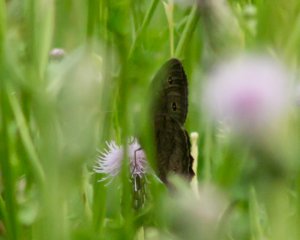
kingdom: Animalia
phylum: Arthropoda
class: Insecta
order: Lepidoptera
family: Nymphalidae
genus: Cercyonis
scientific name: Cercyonis pegala
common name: Common Wood-Nymph
